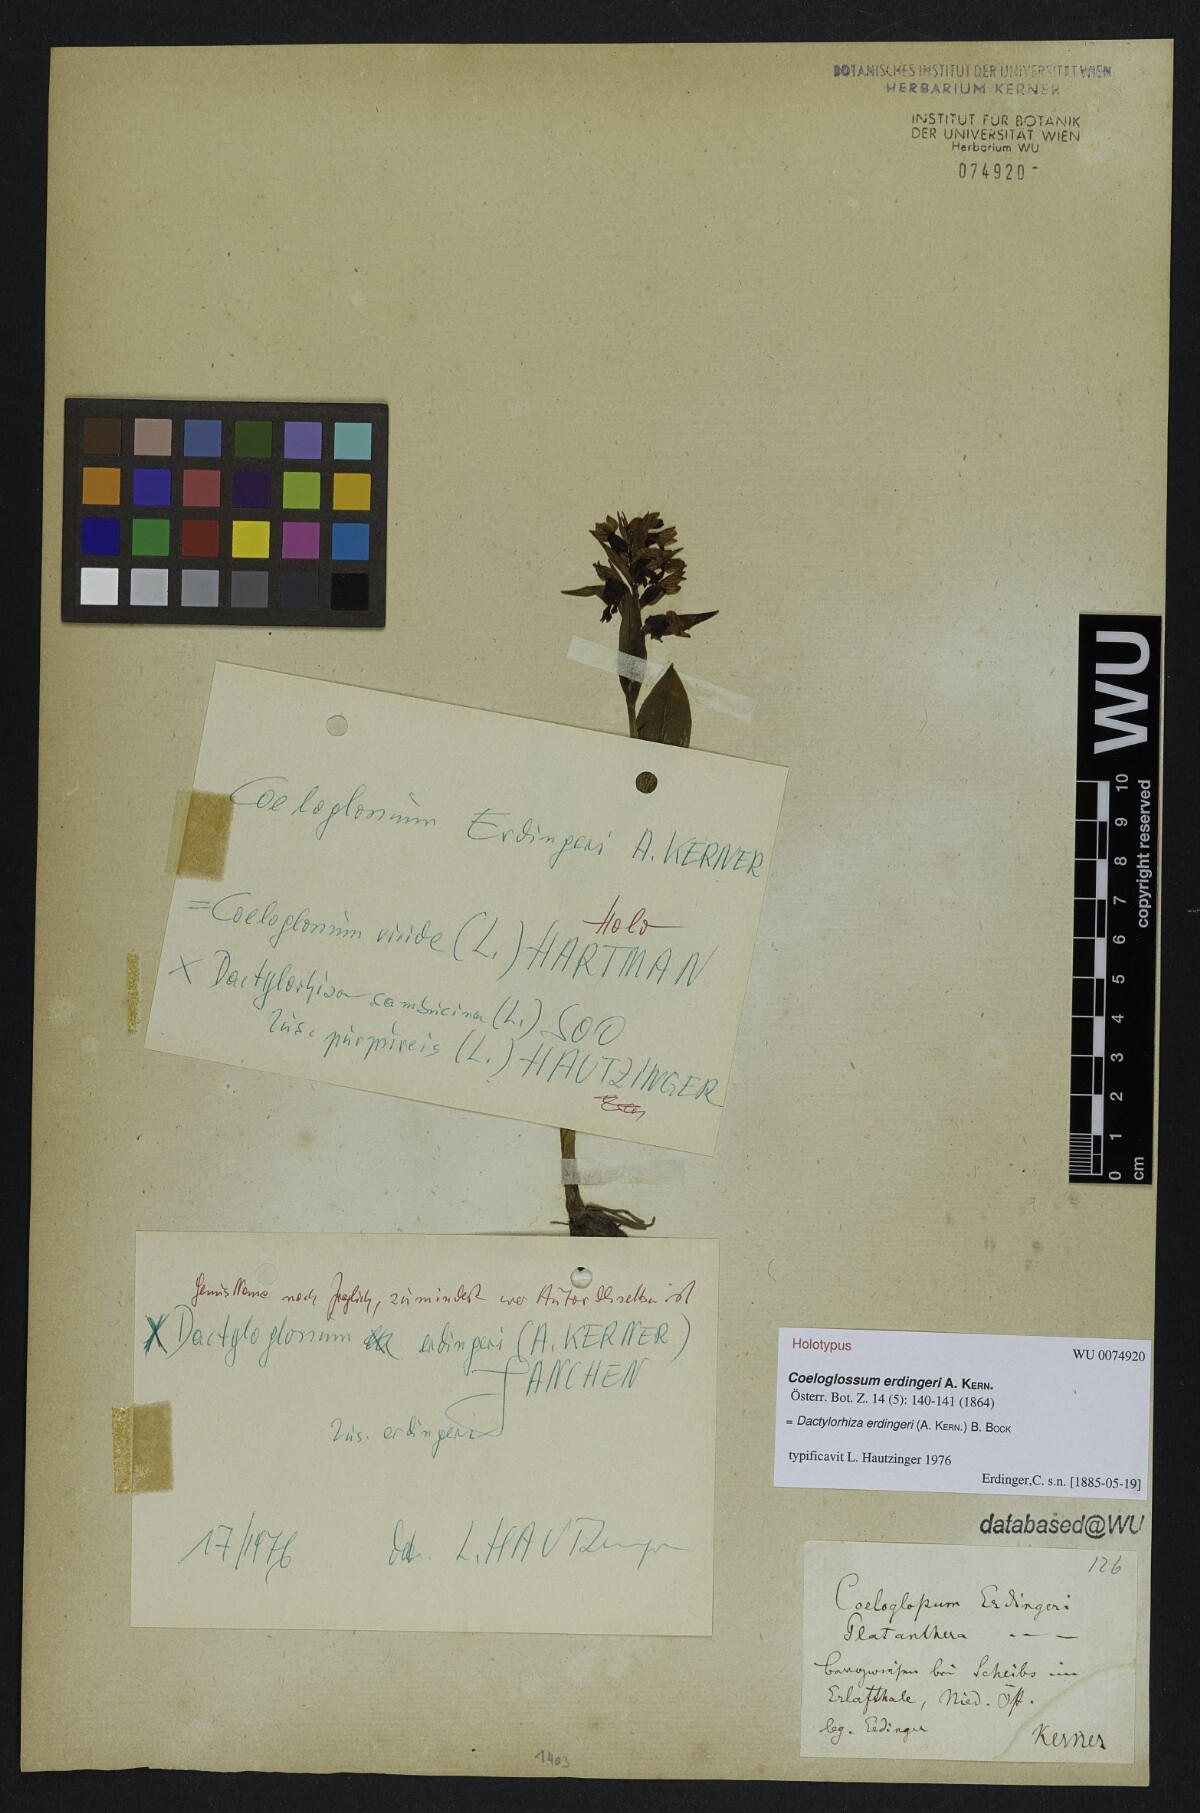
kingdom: Plantae
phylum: Tracheophyta
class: Liliopsida
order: Asparagales
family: Orchidaceae
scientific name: Orchidaceae
